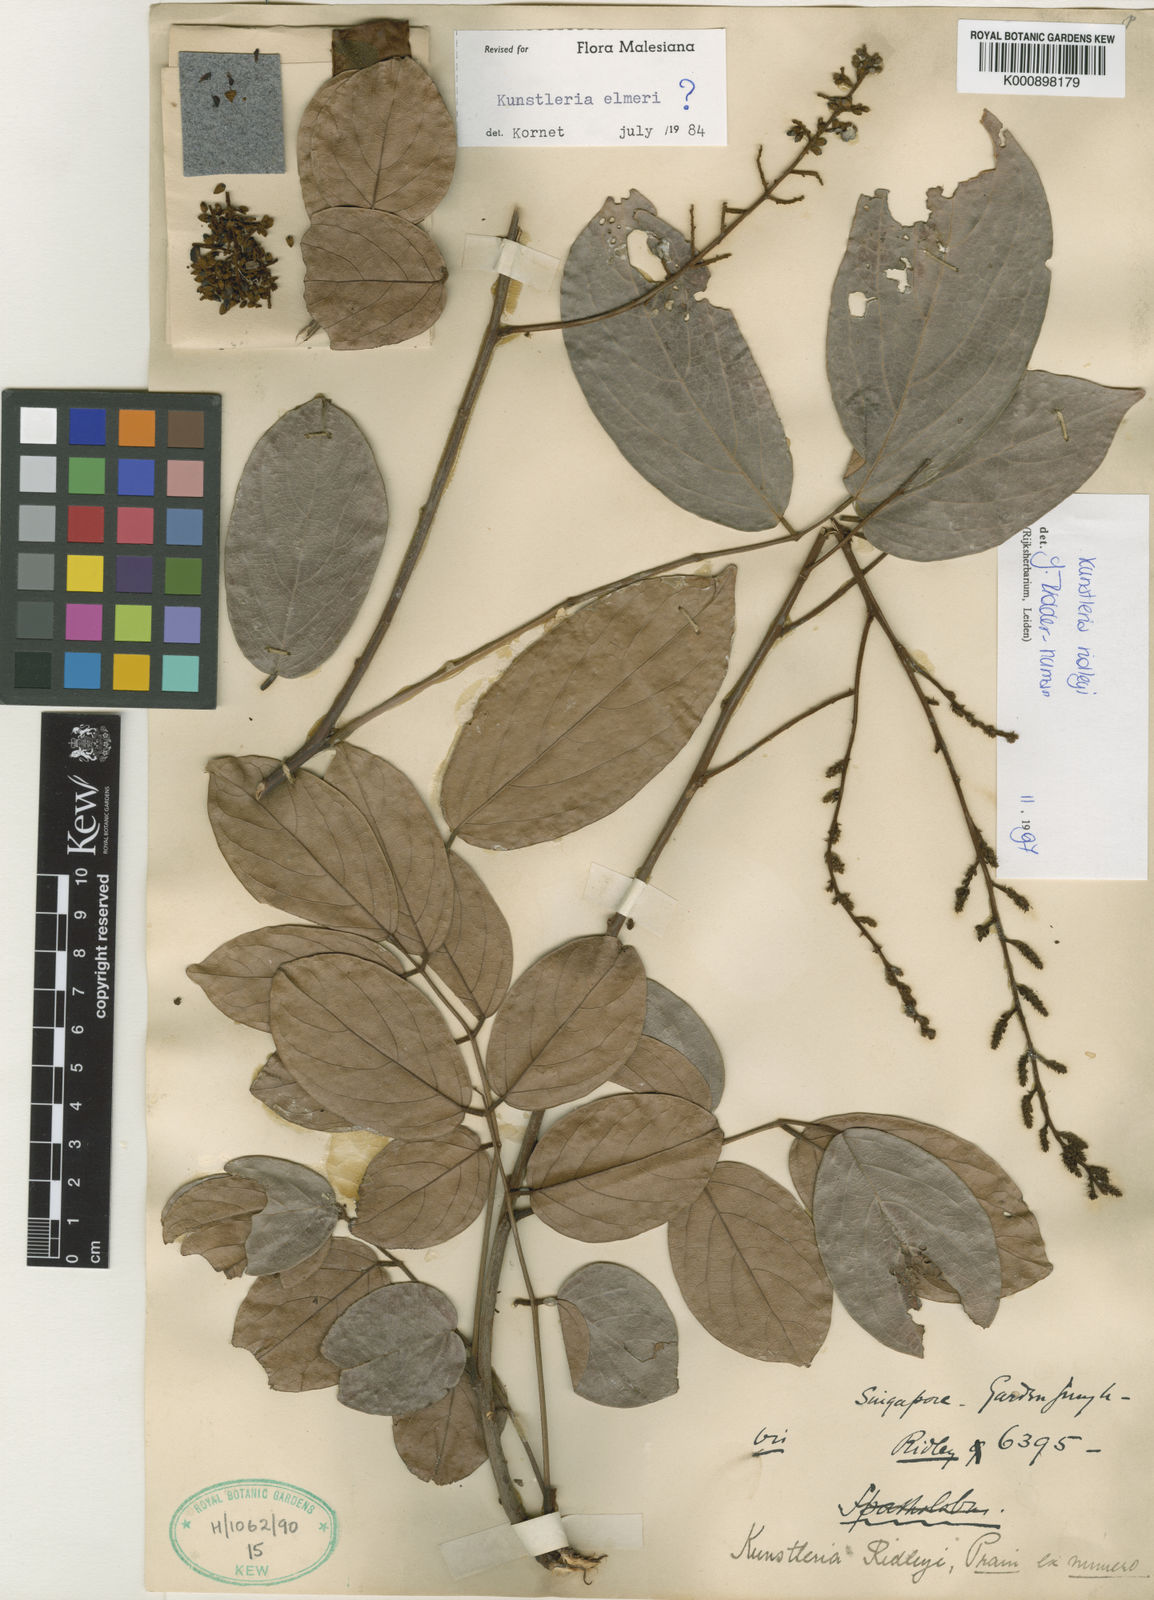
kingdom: Plantae
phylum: Tracheophyta
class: Magnoliopsida
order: Fabales
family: Fabaceae
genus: Kunstleria
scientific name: Kunstleria ridleyi
